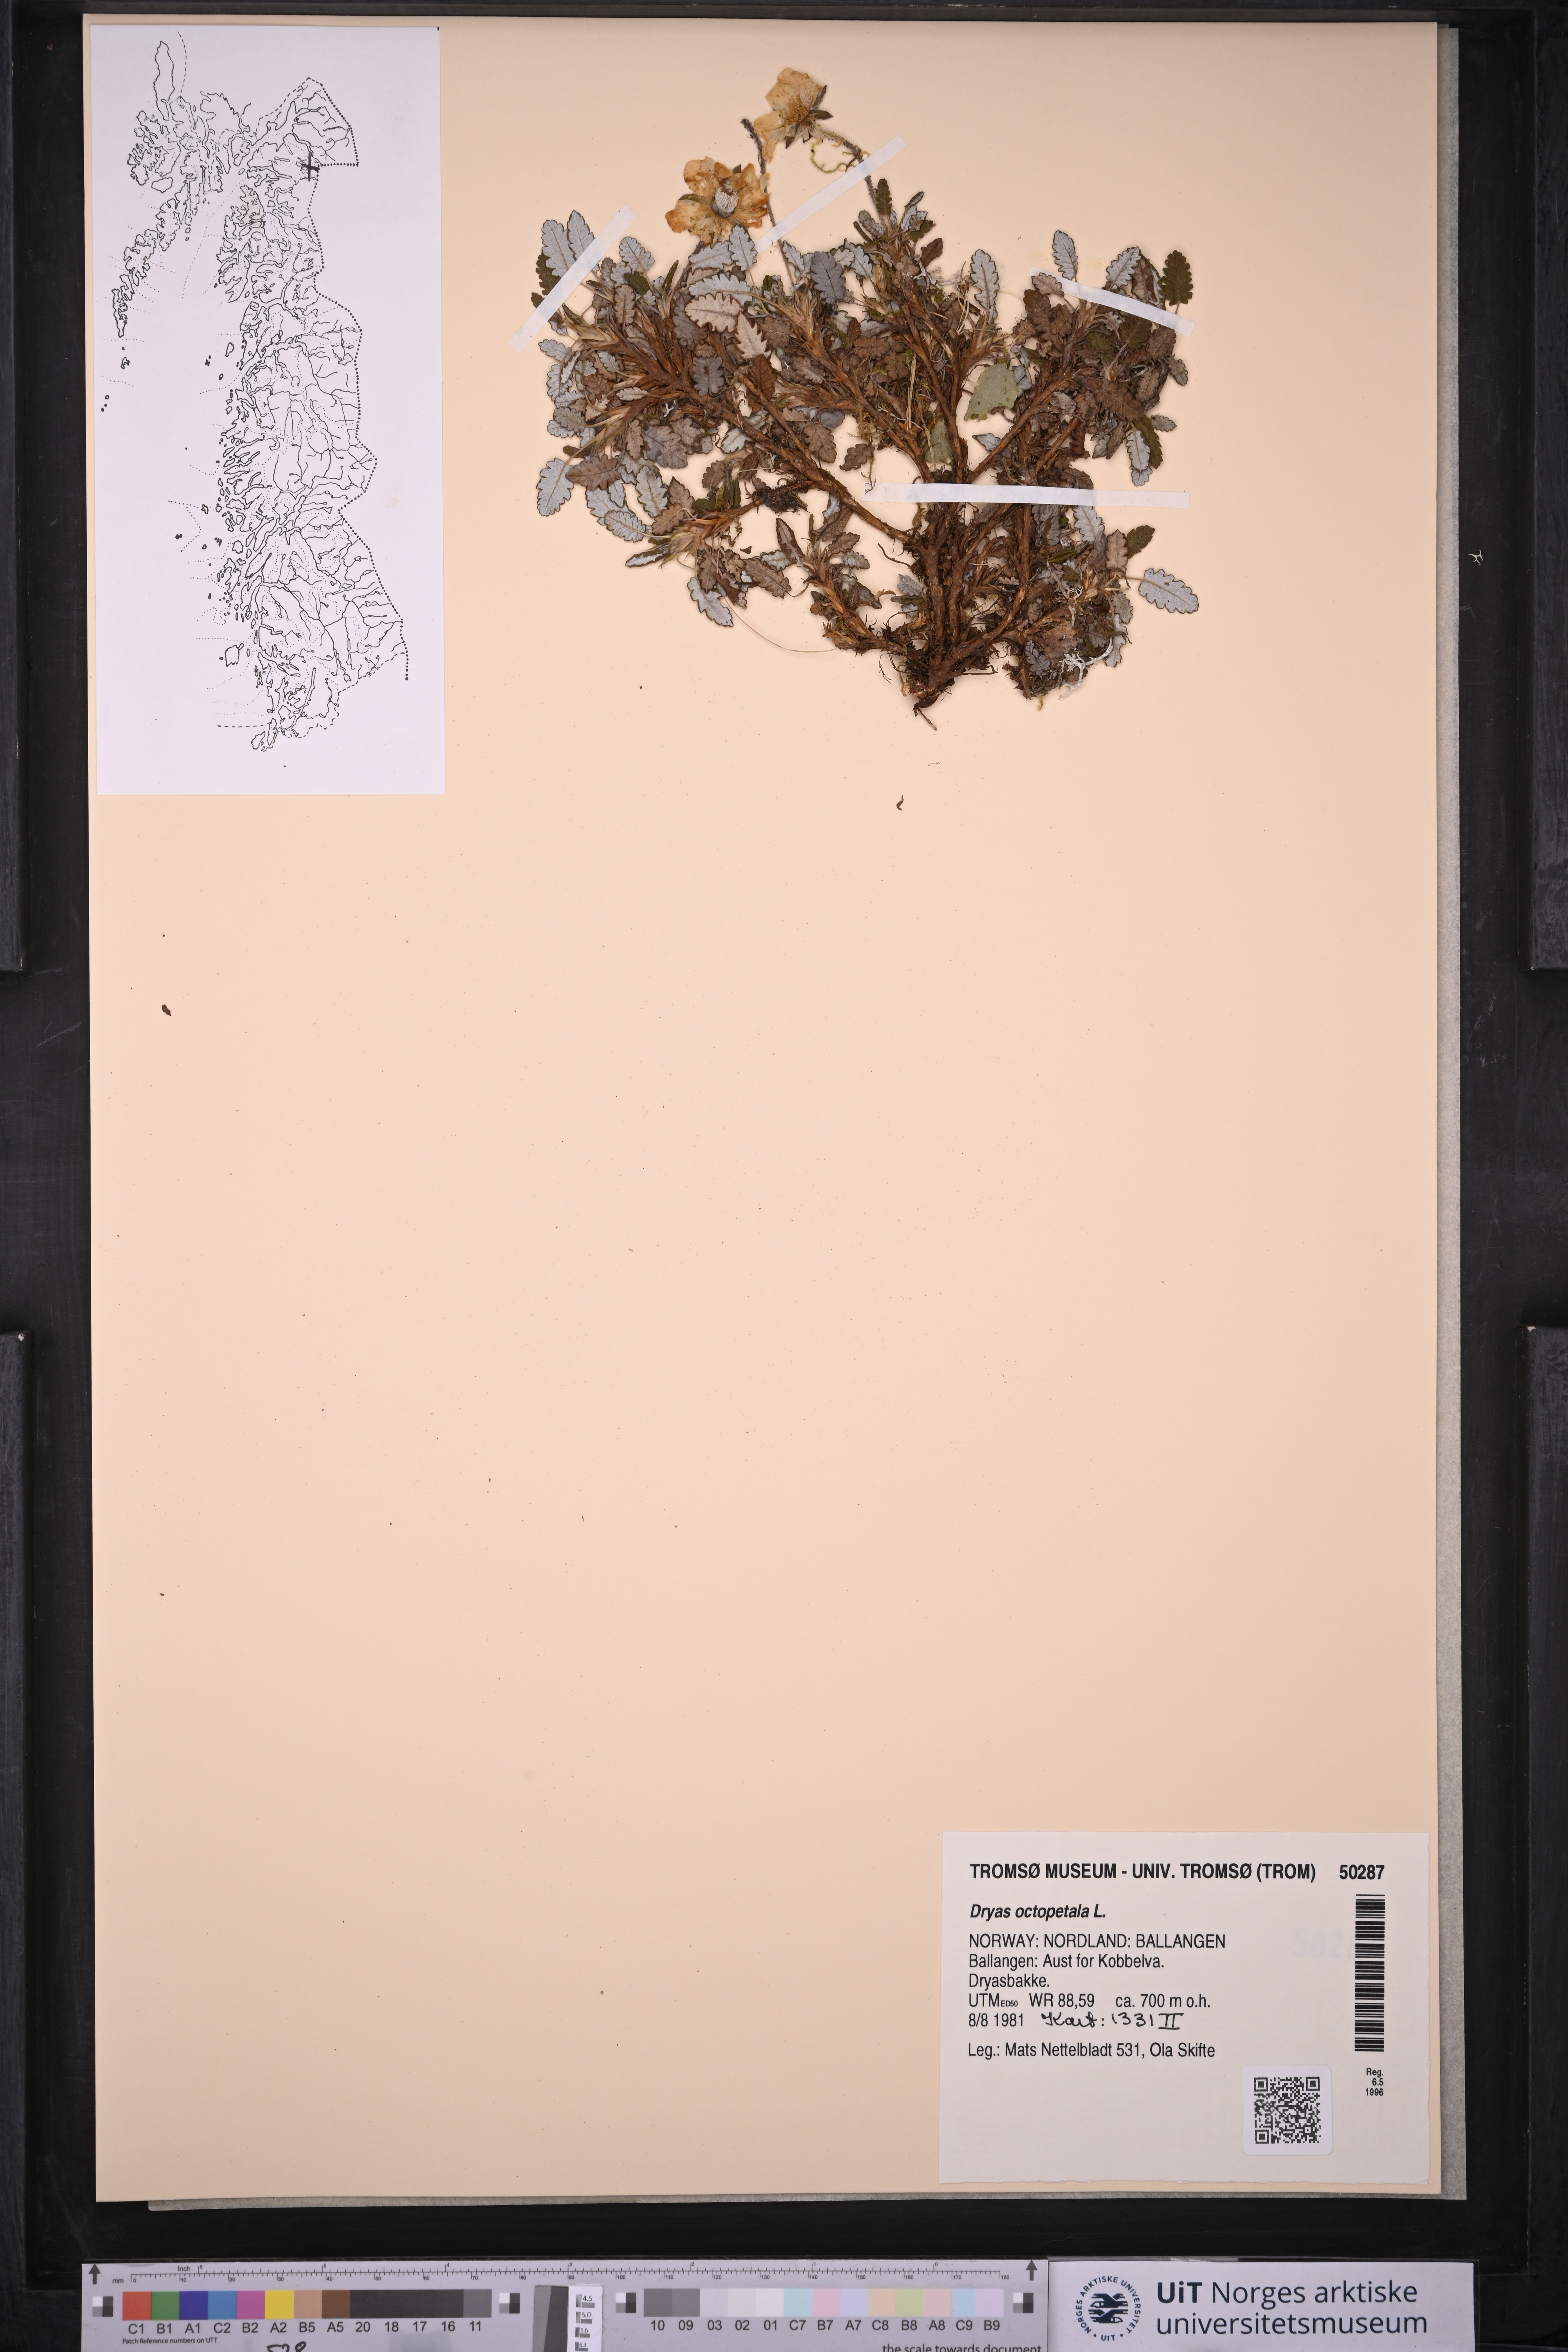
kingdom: Plantae
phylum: Tracheophyta
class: Magnoliopsida
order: Rosales
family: Rosaceae
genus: Dryas
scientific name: Dryas octopetala
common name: Eight-petal mountain-avens
